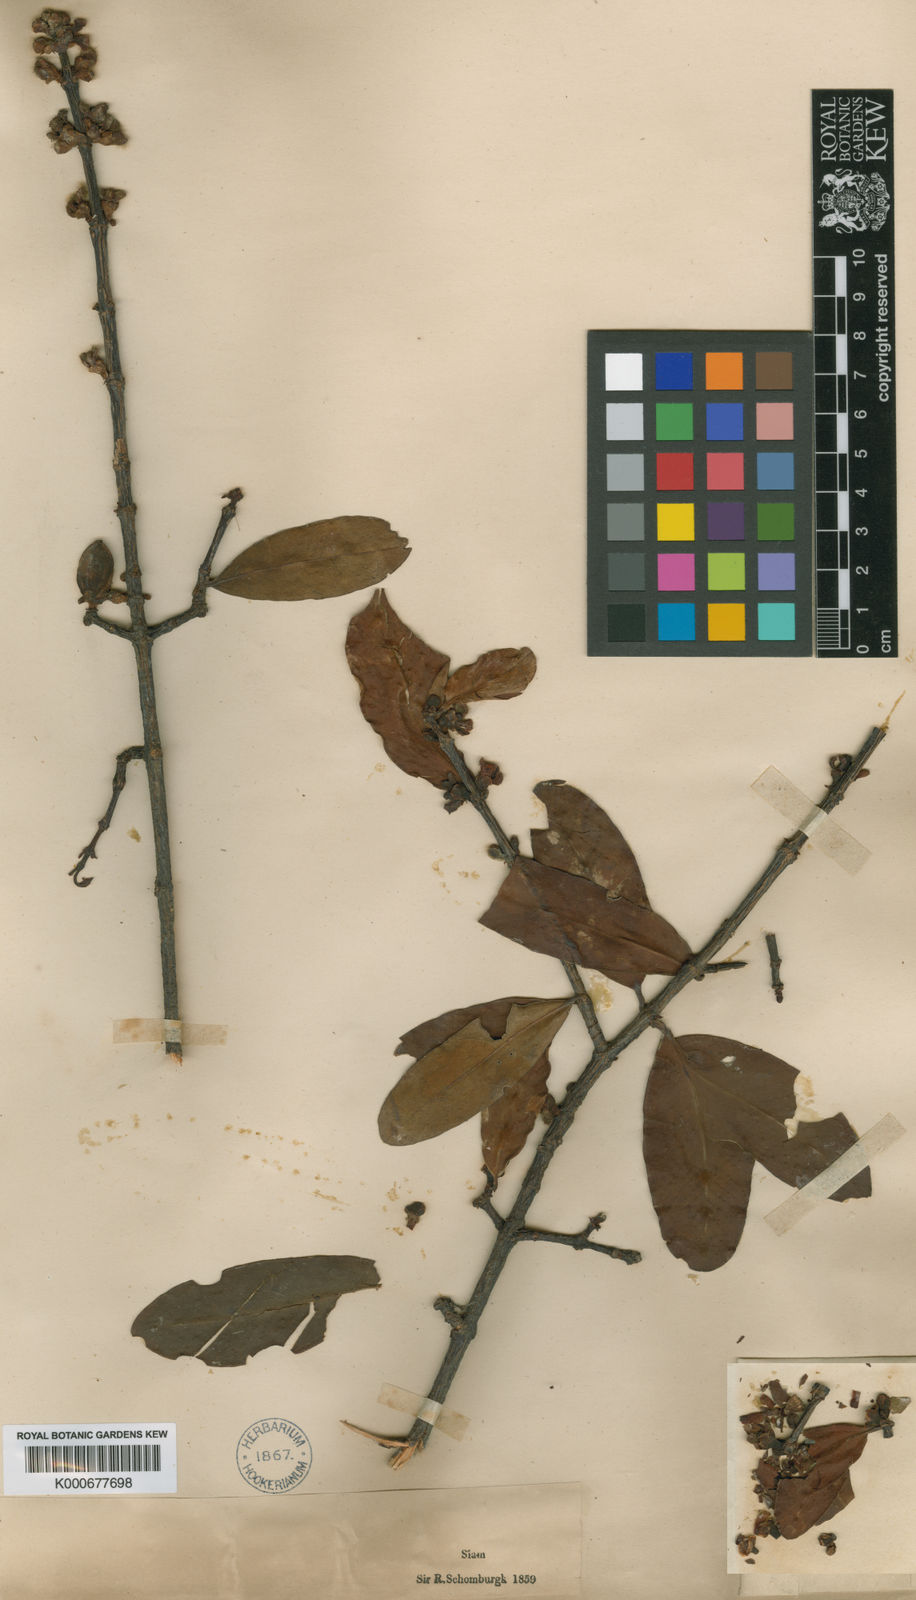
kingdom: Plantae
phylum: Tracheophyta
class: Magnoliopsida
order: Malpighiales
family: Clusiaceae
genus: Garcinia
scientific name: Garcinia schomburgkiana
